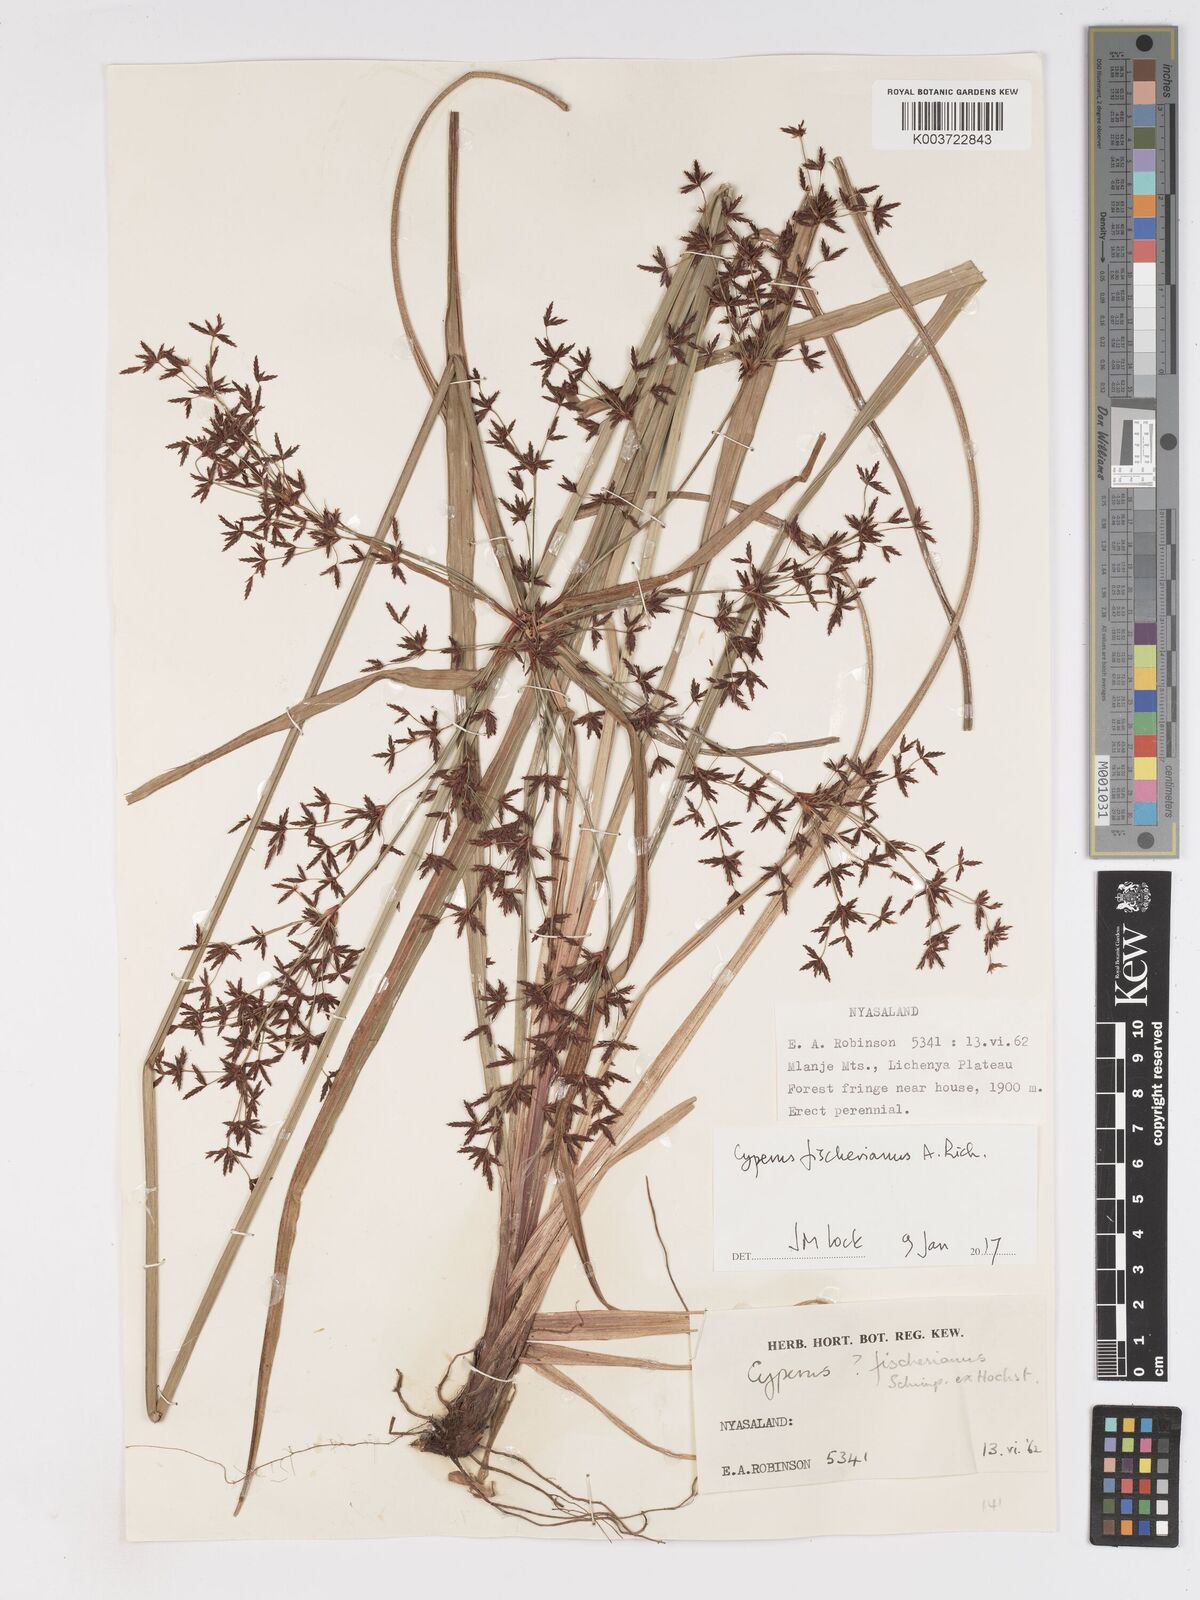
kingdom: Plantae
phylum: Tracheophyta
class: Liliopsida
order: Poales
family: Cyperaceae
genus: Cyperus
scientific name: Cyperus fischerianus
